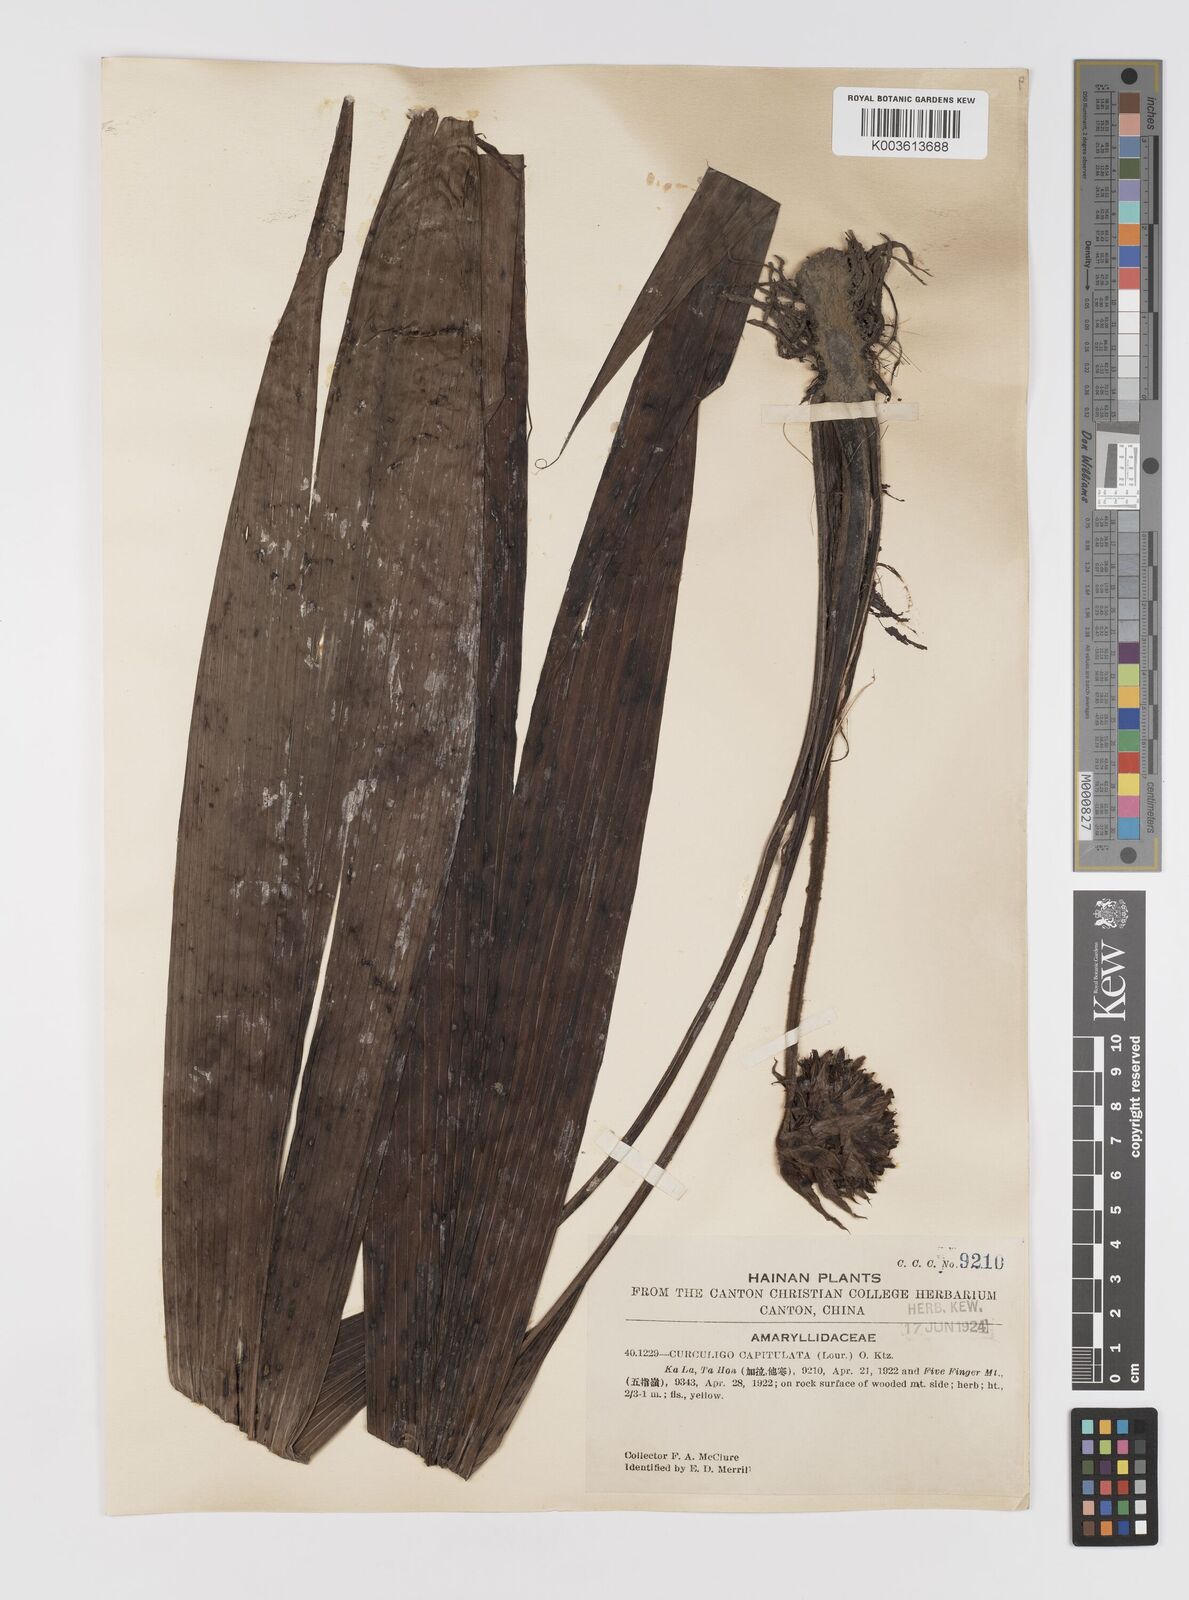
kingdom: Plantae
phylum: Tracheophyta
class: Liliopsida
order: Asparagales
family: Hypoxidaceae
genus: Curculigo
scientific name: Curculigo capitulata
